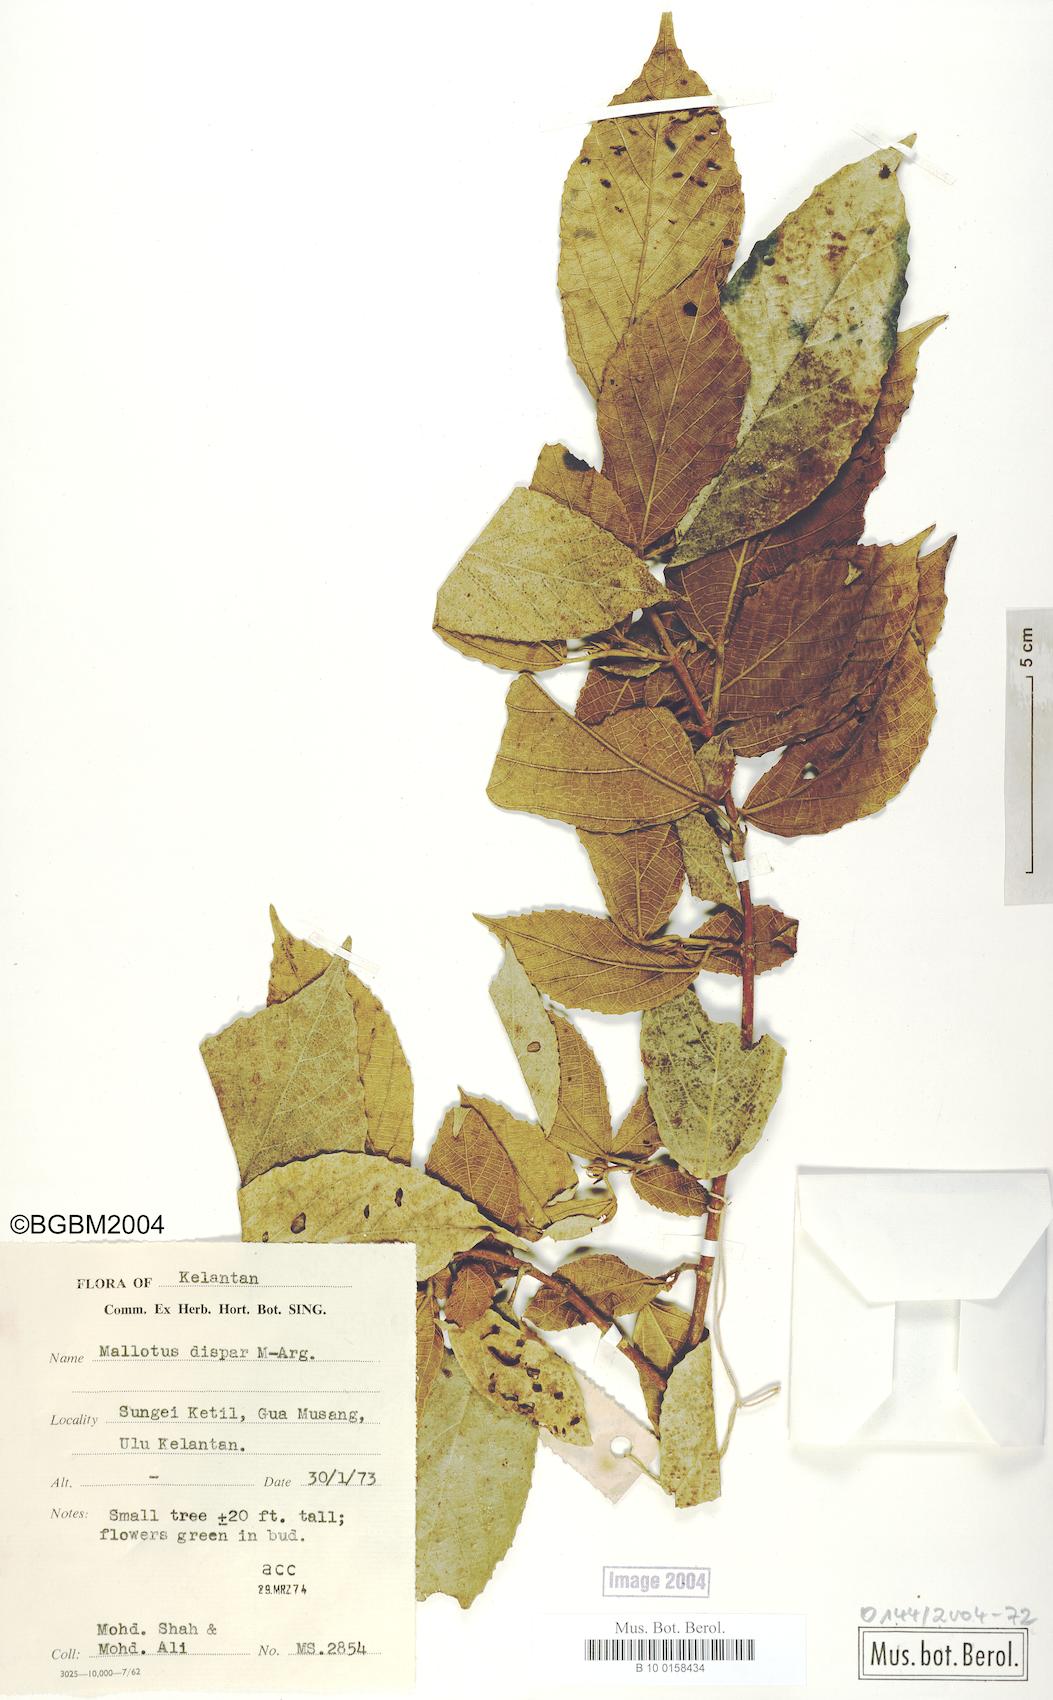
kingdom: Plantae
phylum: Tracheophyta
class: Magnoliopsida
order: Malpighiales
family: Euphorbiaceae
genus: Mallotus
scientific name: Mallotus dispar
